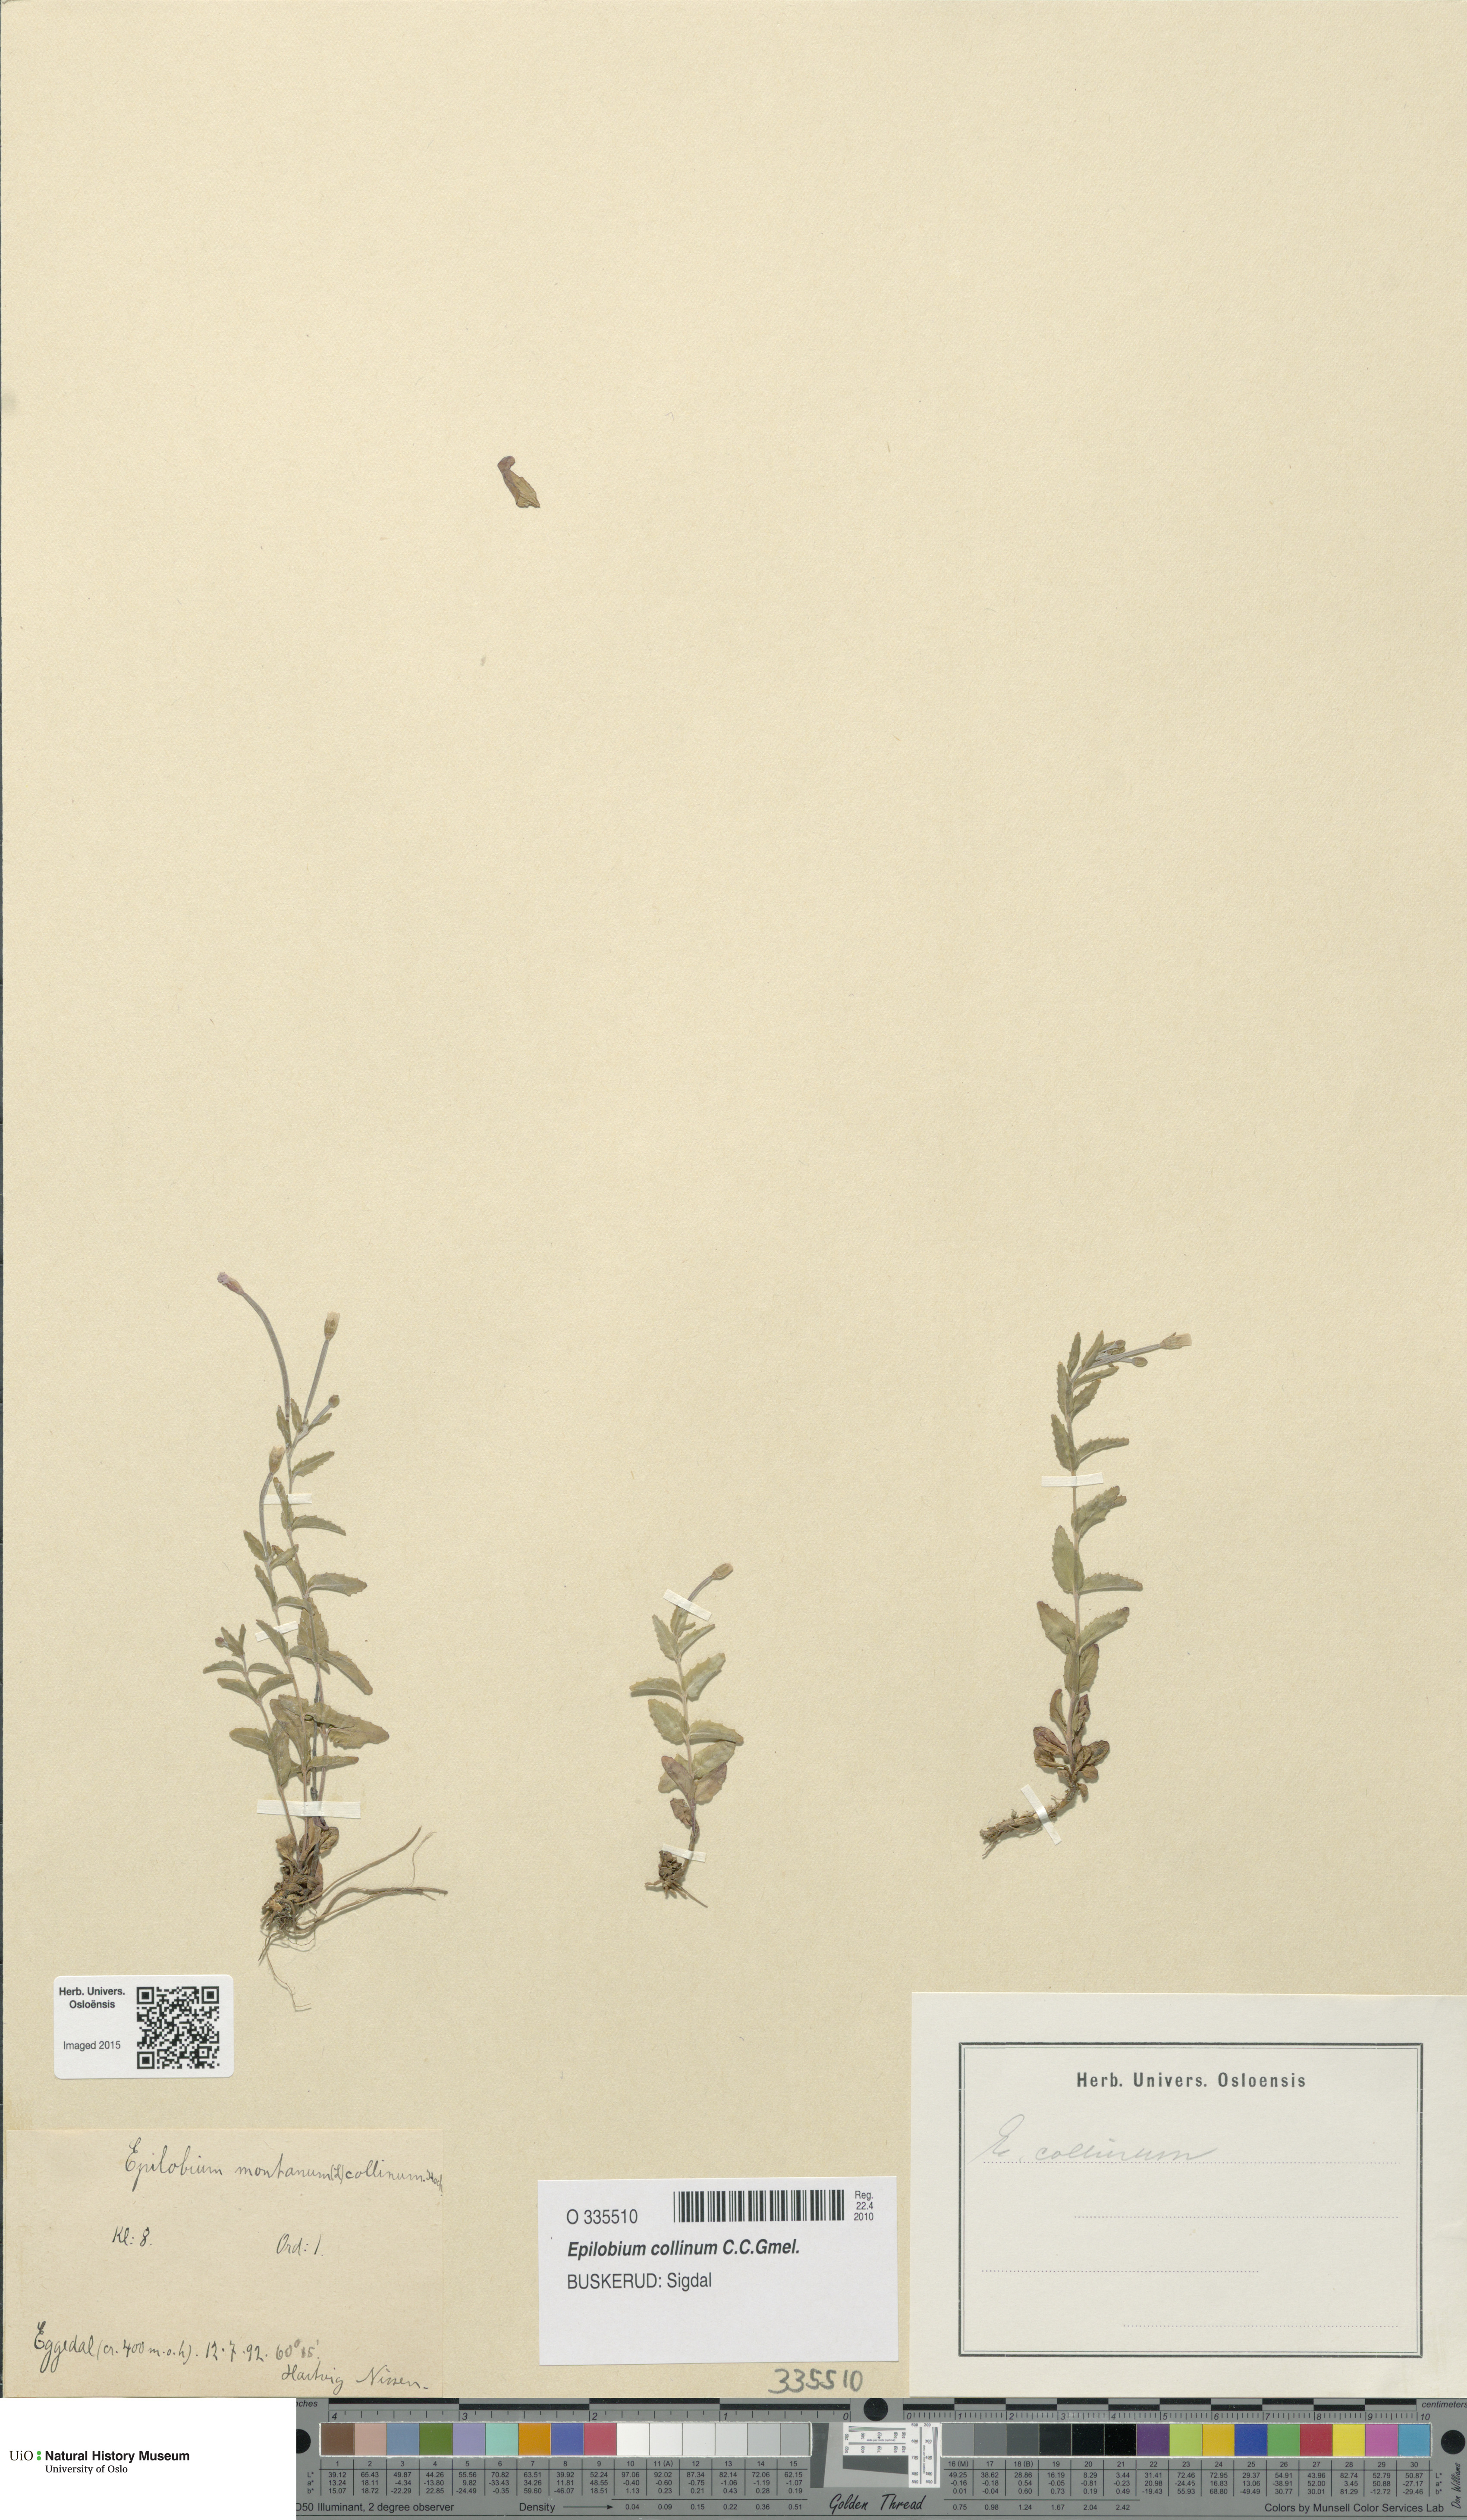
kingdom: Plantae
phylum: Tracheophyta
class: Magnoliopsida
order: Myrtales
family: Onagraceae
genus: Epilobium
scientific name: Epilobium collinum
